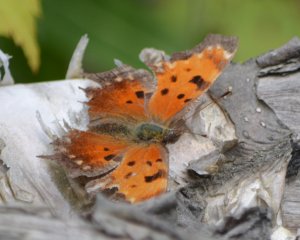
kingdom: Animalia
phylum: Arthropoda
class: Insecta
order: Lepidoptera
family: Nymphalidae
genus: Polygonia
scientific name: Polygonia progne
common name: Gray Comma
